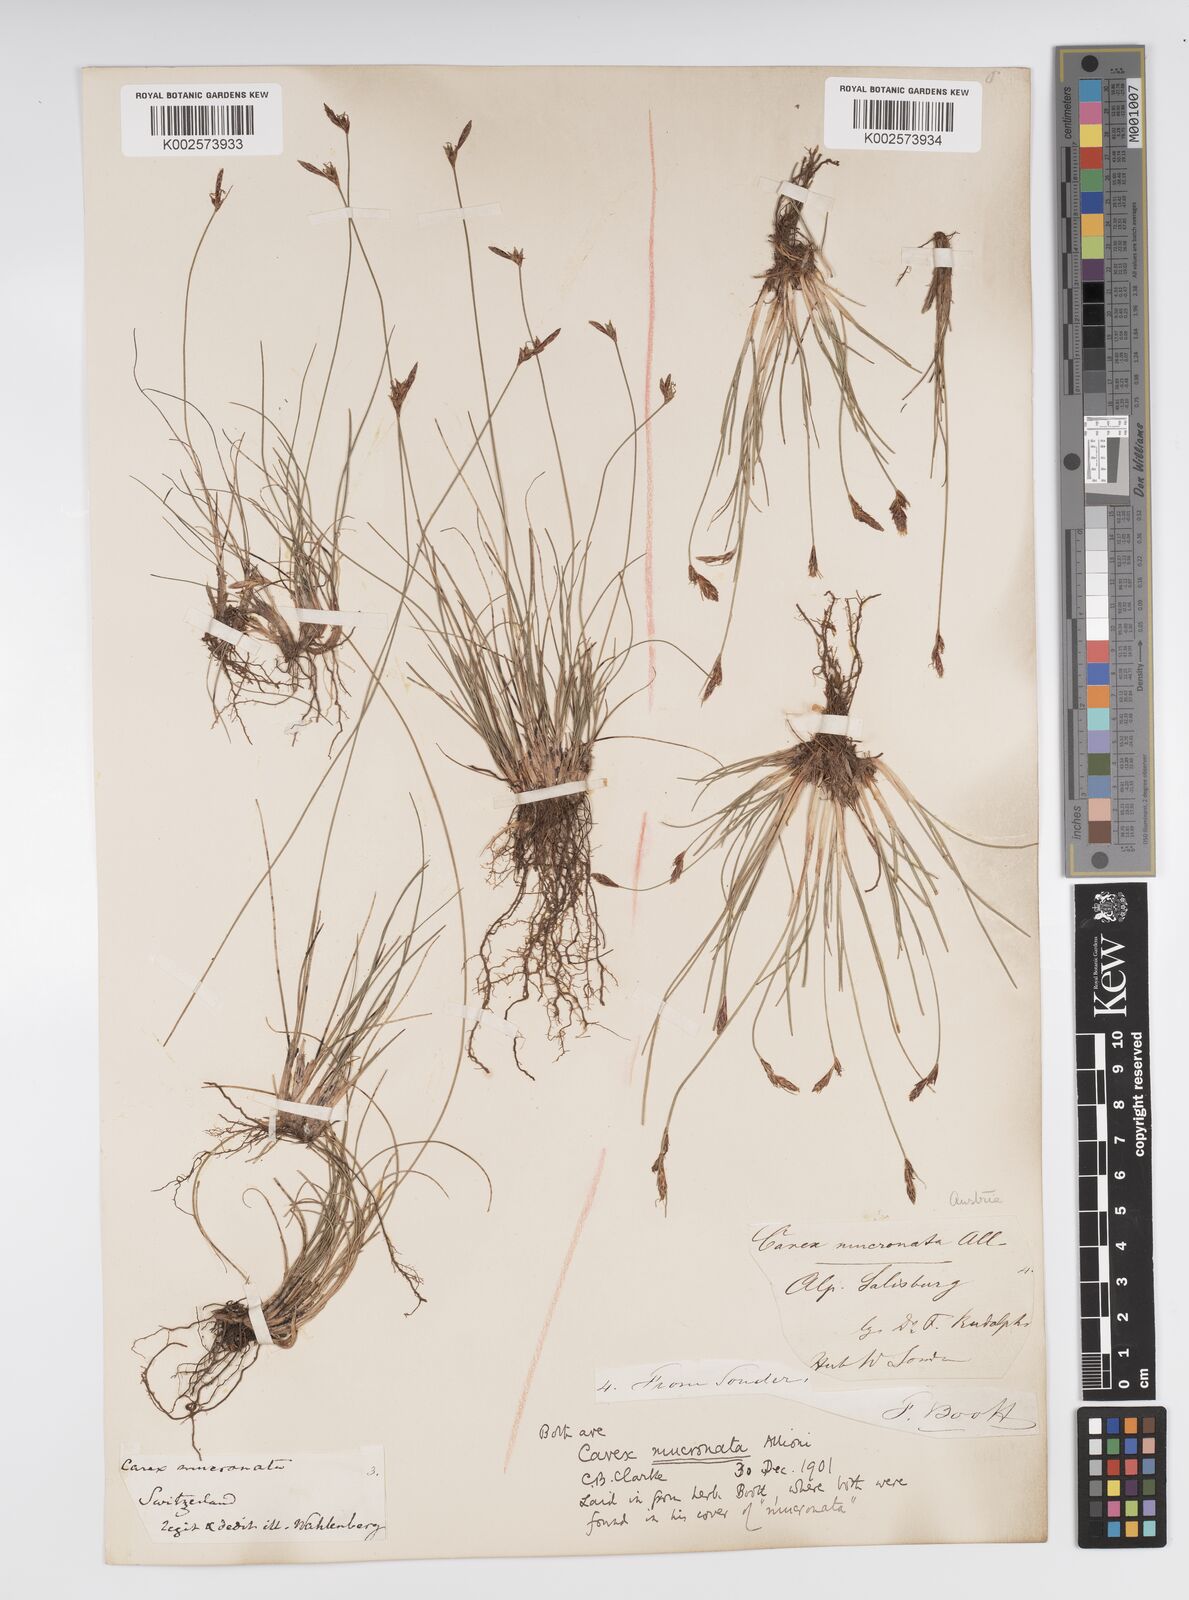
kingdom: Plantae
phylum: Tracheophyta
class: Liliopsida
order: Poales
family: Cyperaceae
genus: Carex
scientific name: Carex mucronata
